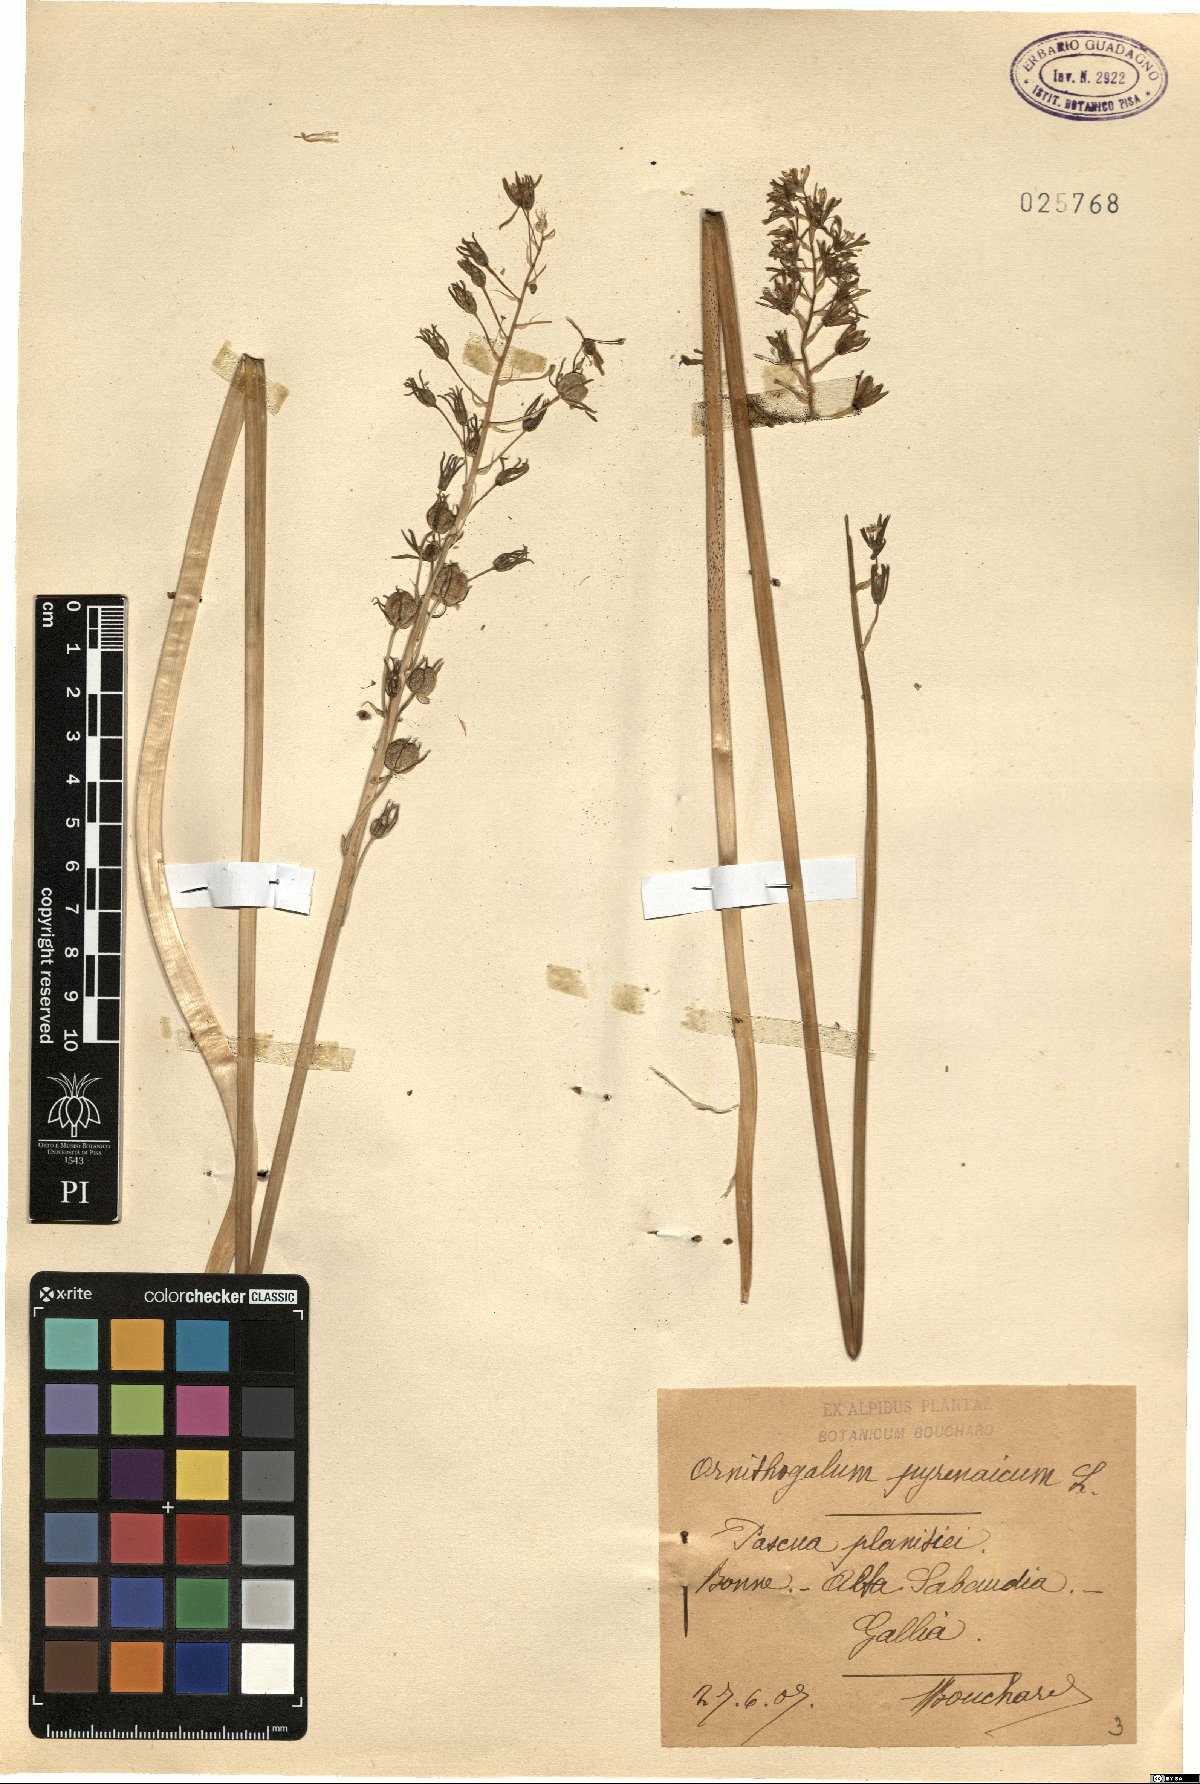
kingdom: Plantae
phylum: Tracheophyta
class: Liliopsida
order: Asparagales
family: Asparagaceae
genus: Ornithogalum
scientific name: Ornithogalum pyrenaicum
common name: Spiked star-of-bethlehem
